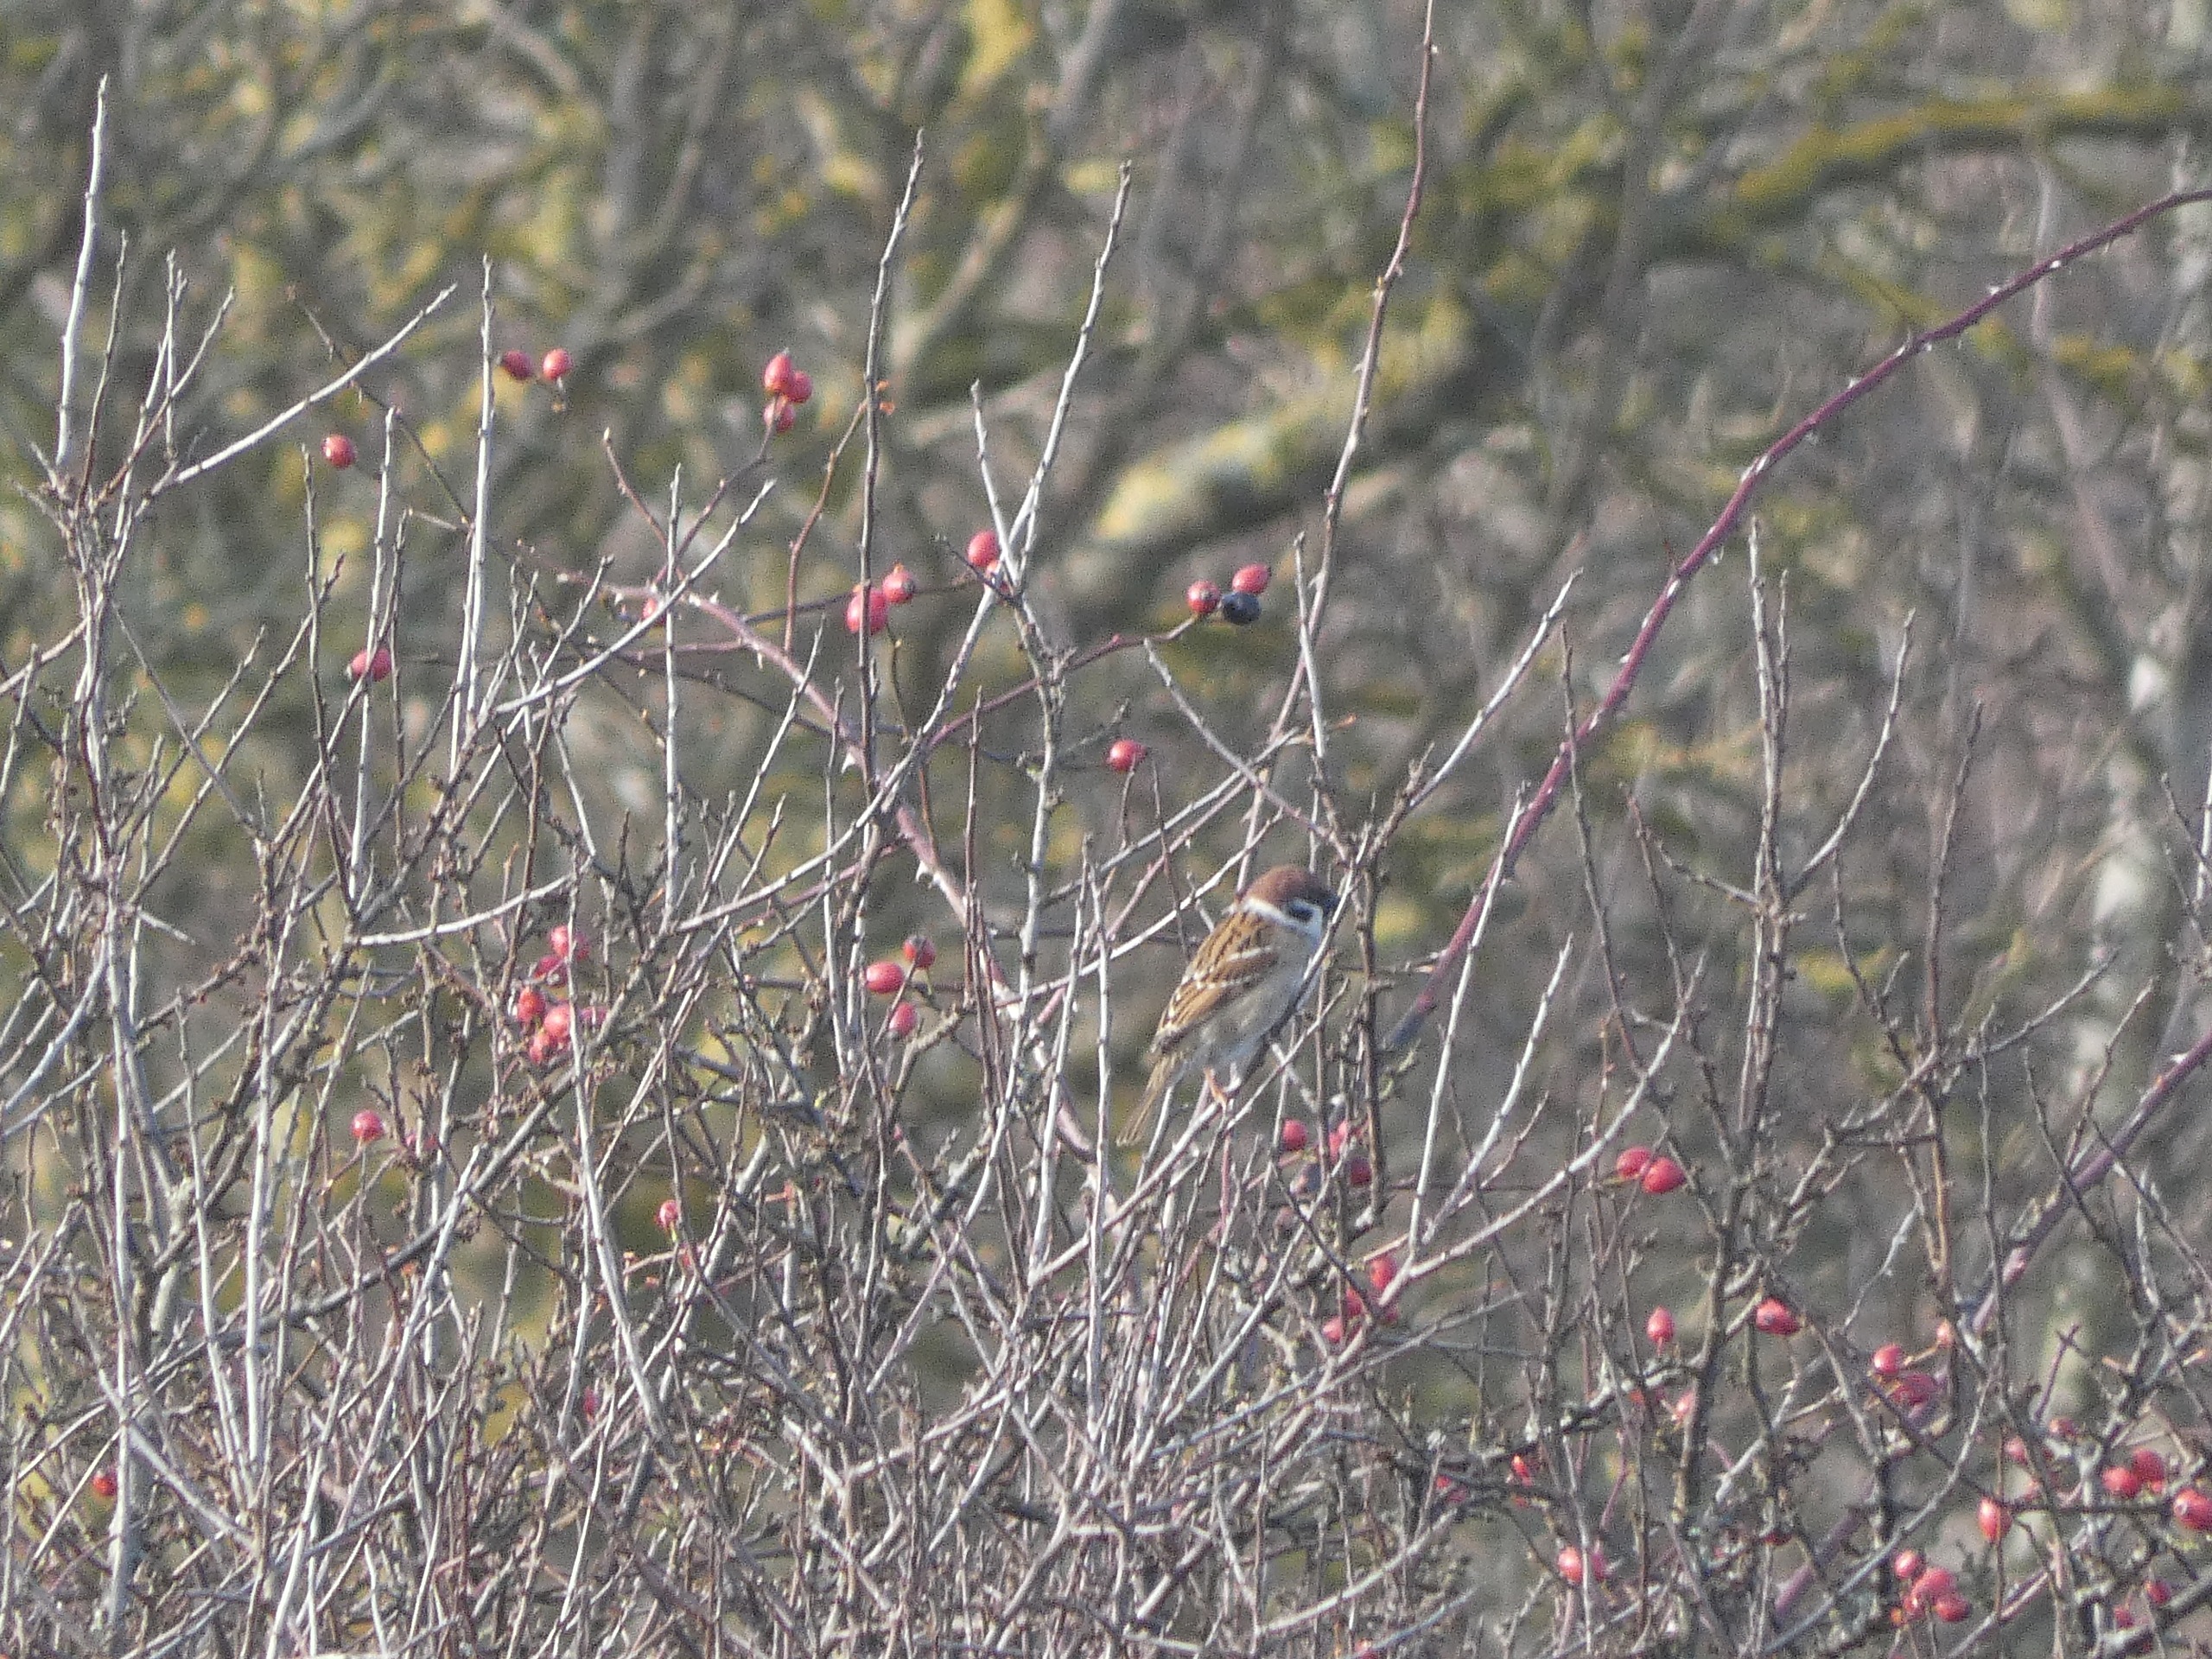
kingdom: Animalia
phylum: Chordata
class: Aves
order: Passeriformes
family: Passeridae
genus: Passer
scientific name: Passer montanus
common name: Skovspurv
